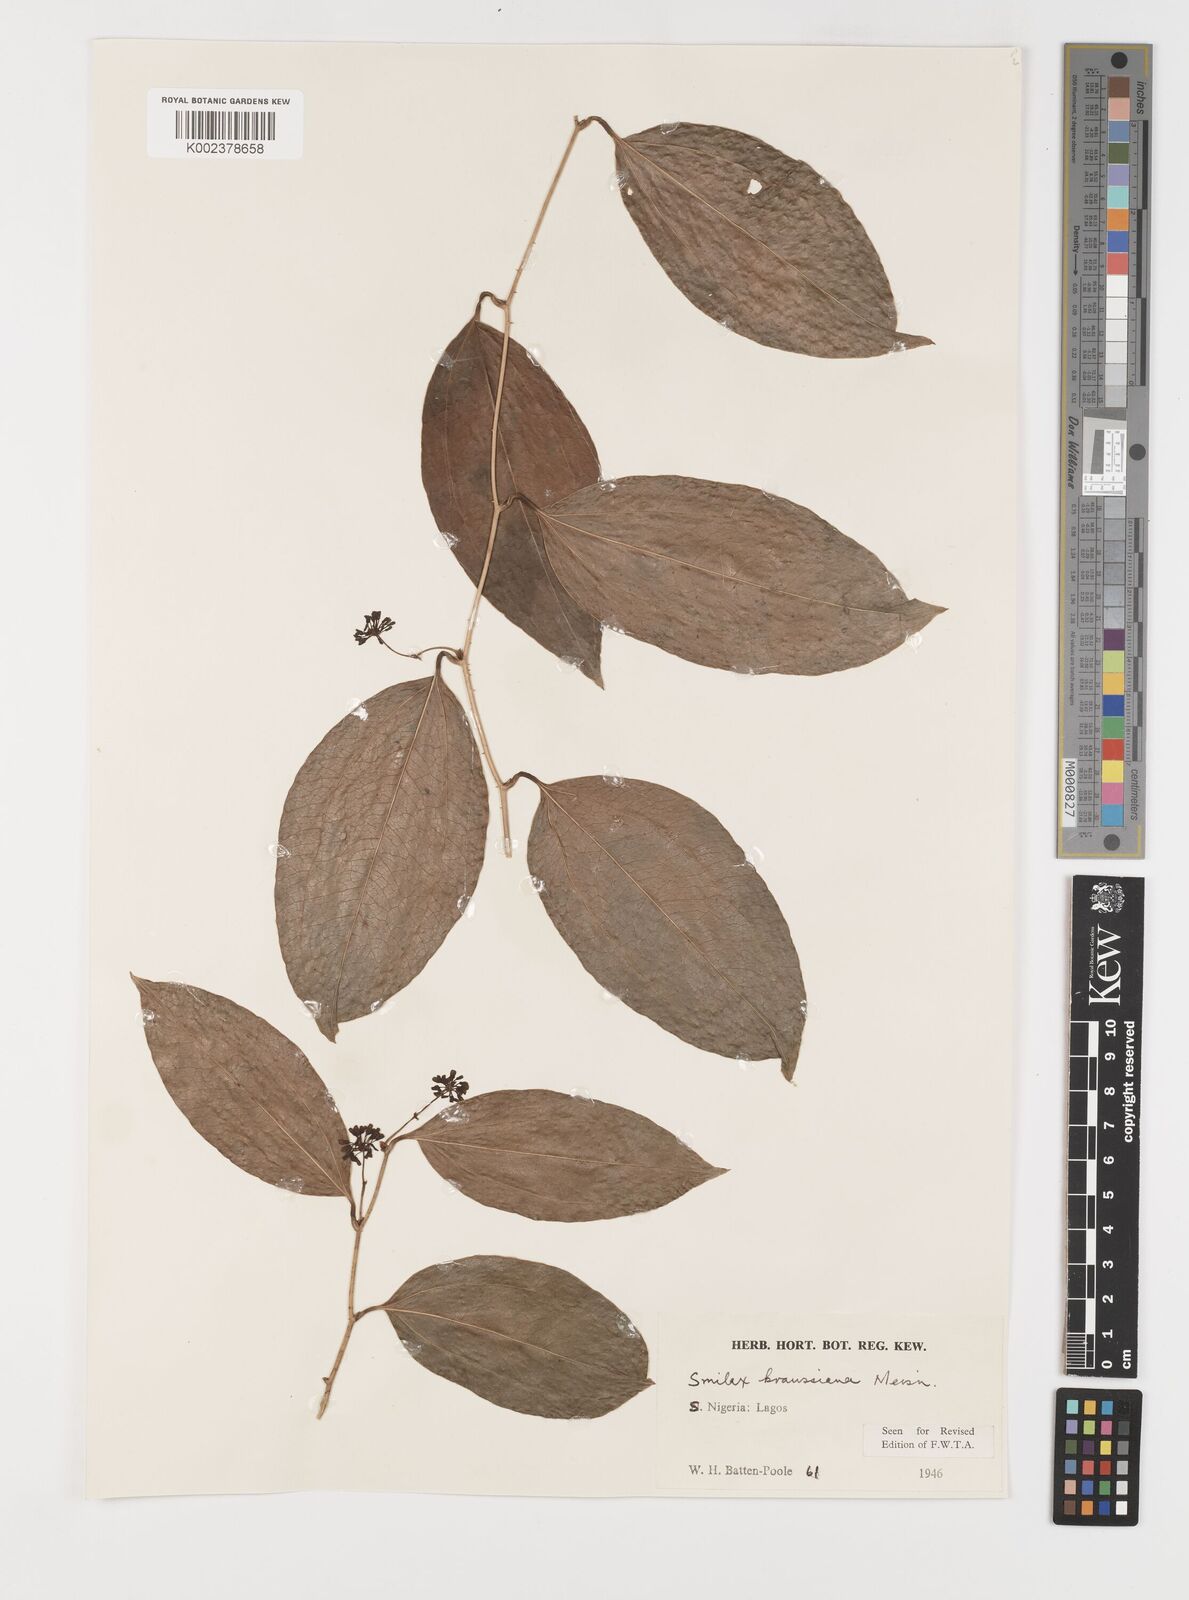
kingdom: Plantae
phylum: Tracheophyta
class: Liliopsida
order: Liliales
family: Smilacaceae
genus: Smilax
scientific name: Smilax anceps
